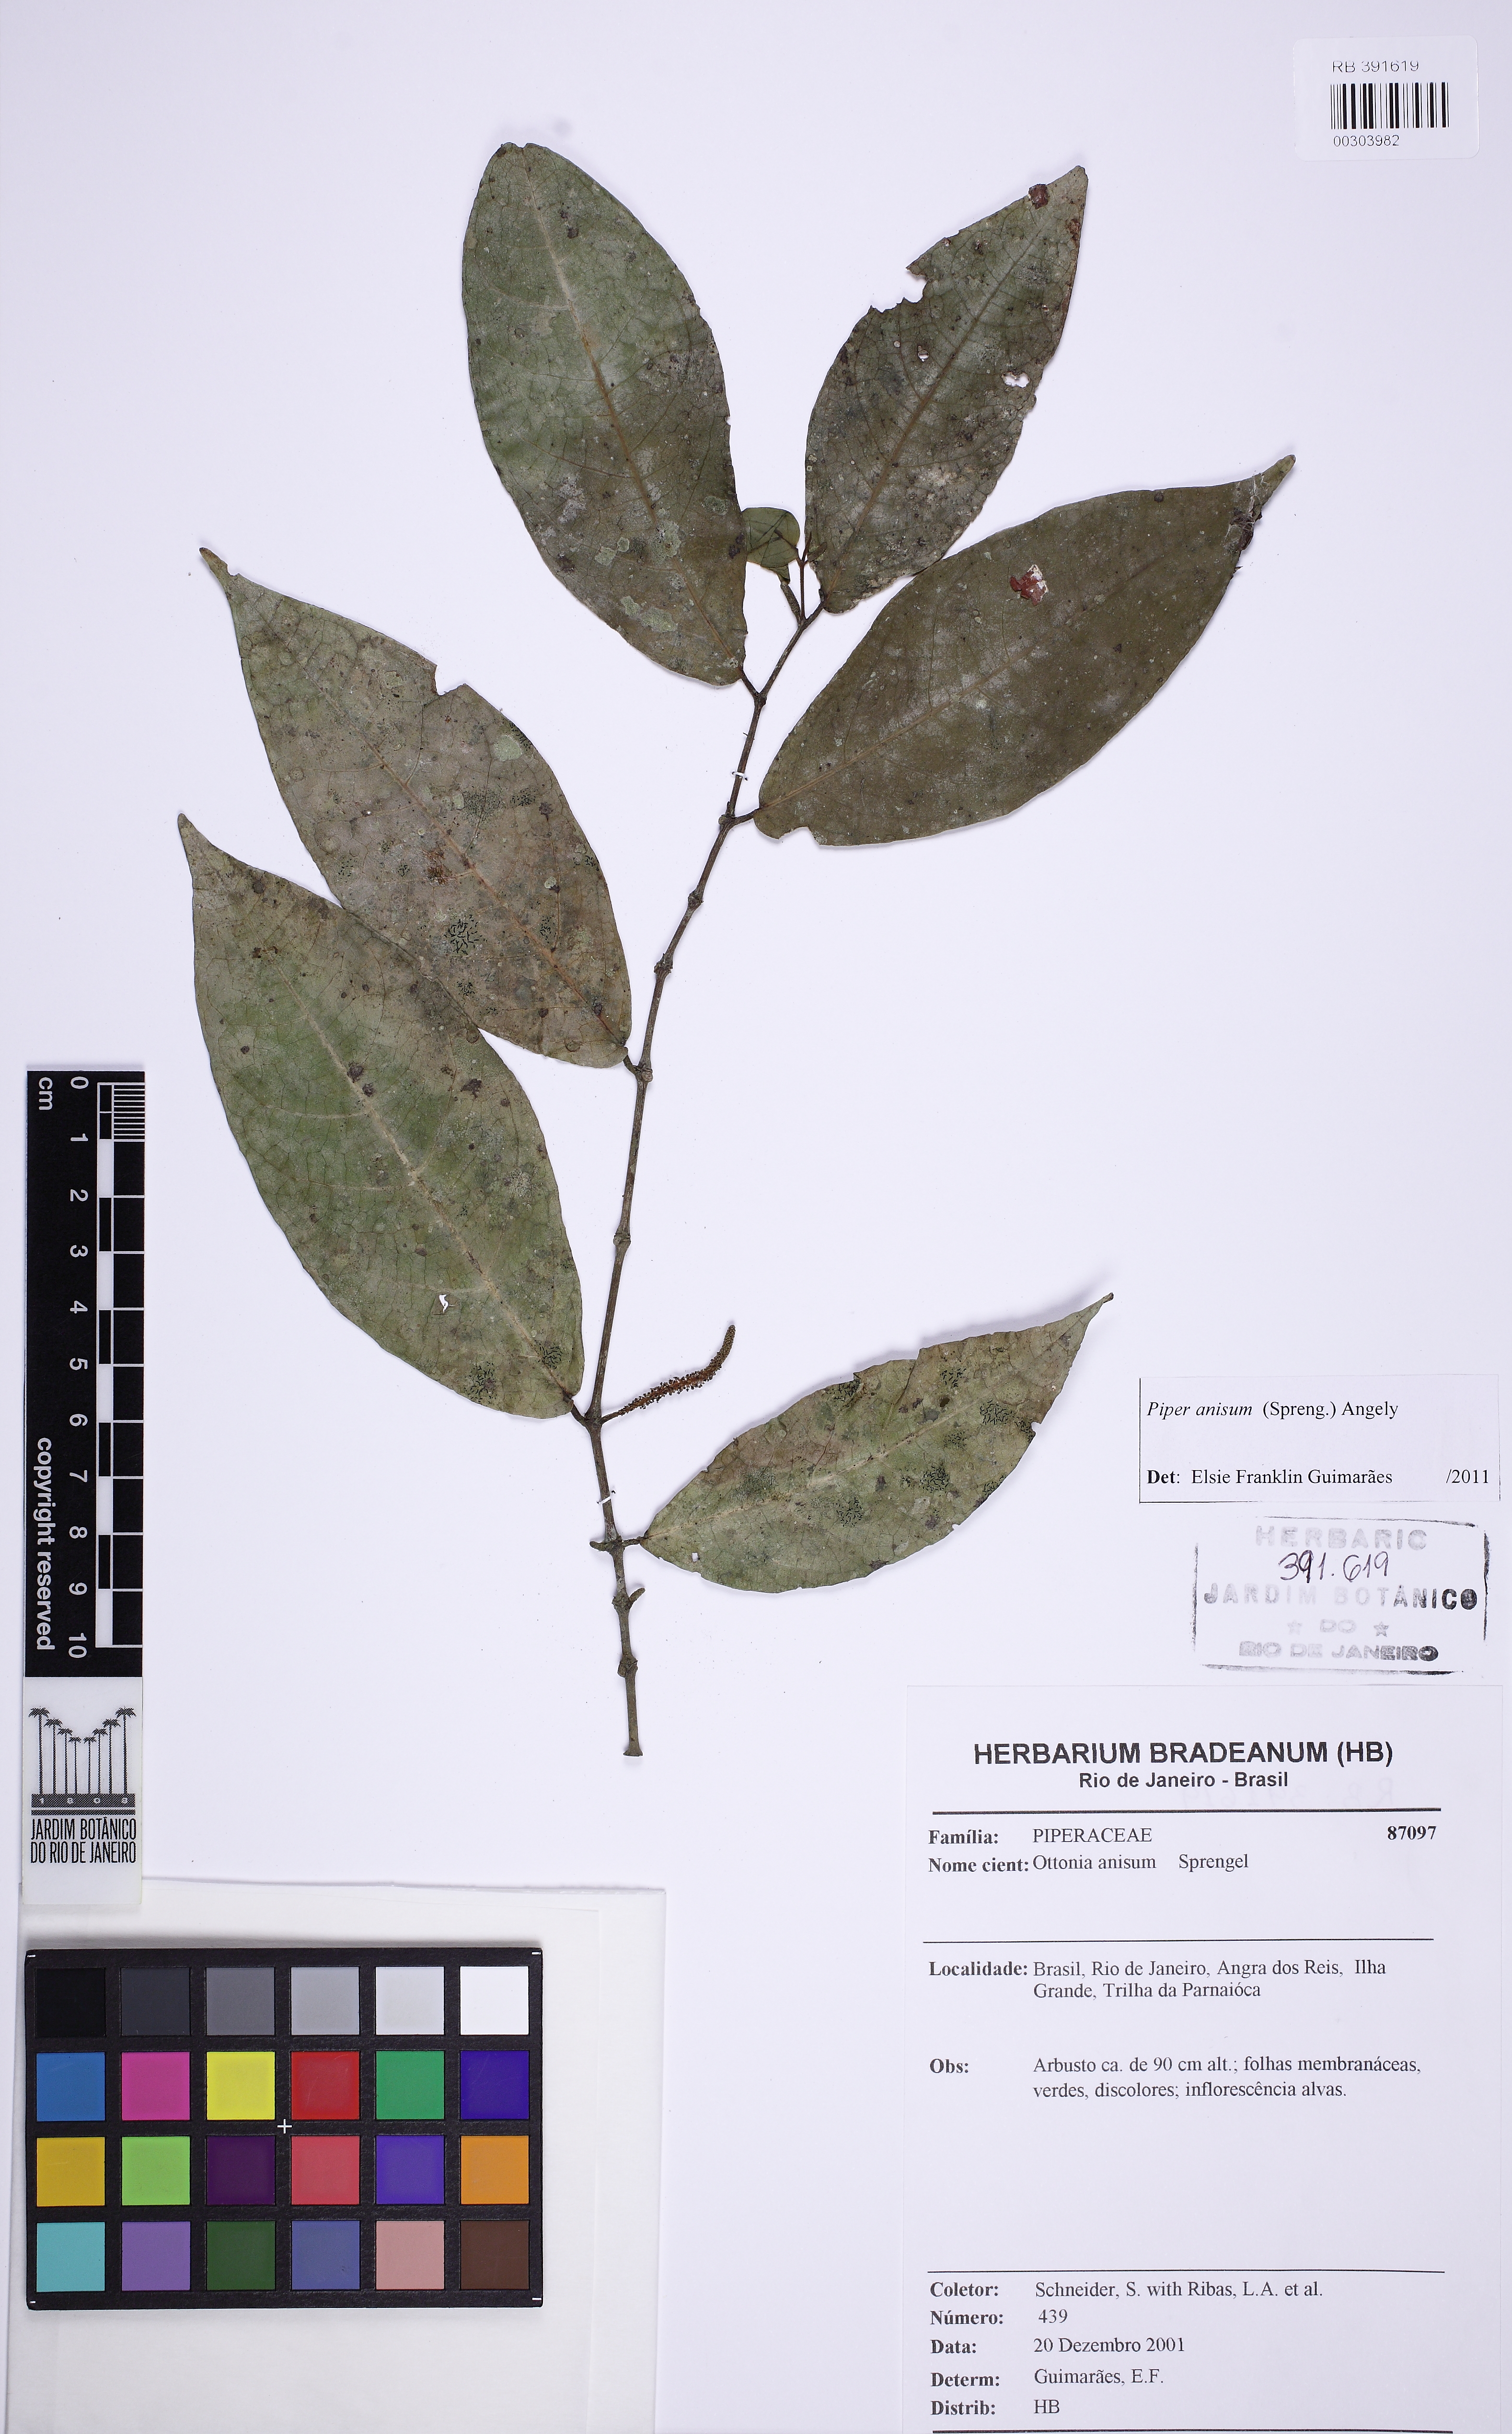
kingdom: Plantae
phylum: Tracheophyta
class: Magnoliopsida
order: Piperales
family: Piperaceae
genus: Piper
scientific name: Piper anisum
